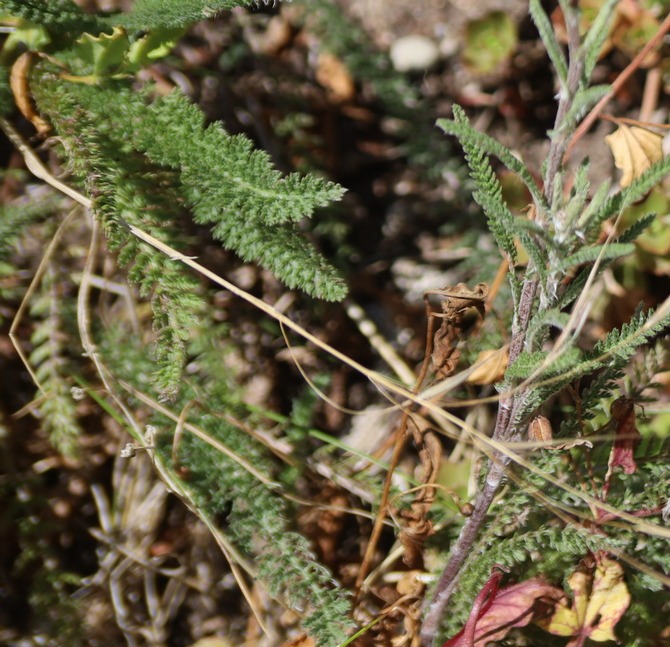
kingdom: Plantae
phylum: Tracheophyta
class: Magnoliopsida
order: Asterales
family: Asteraceae
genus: Achillea
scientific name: Achillea millefolium
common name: Almindelig røllike
